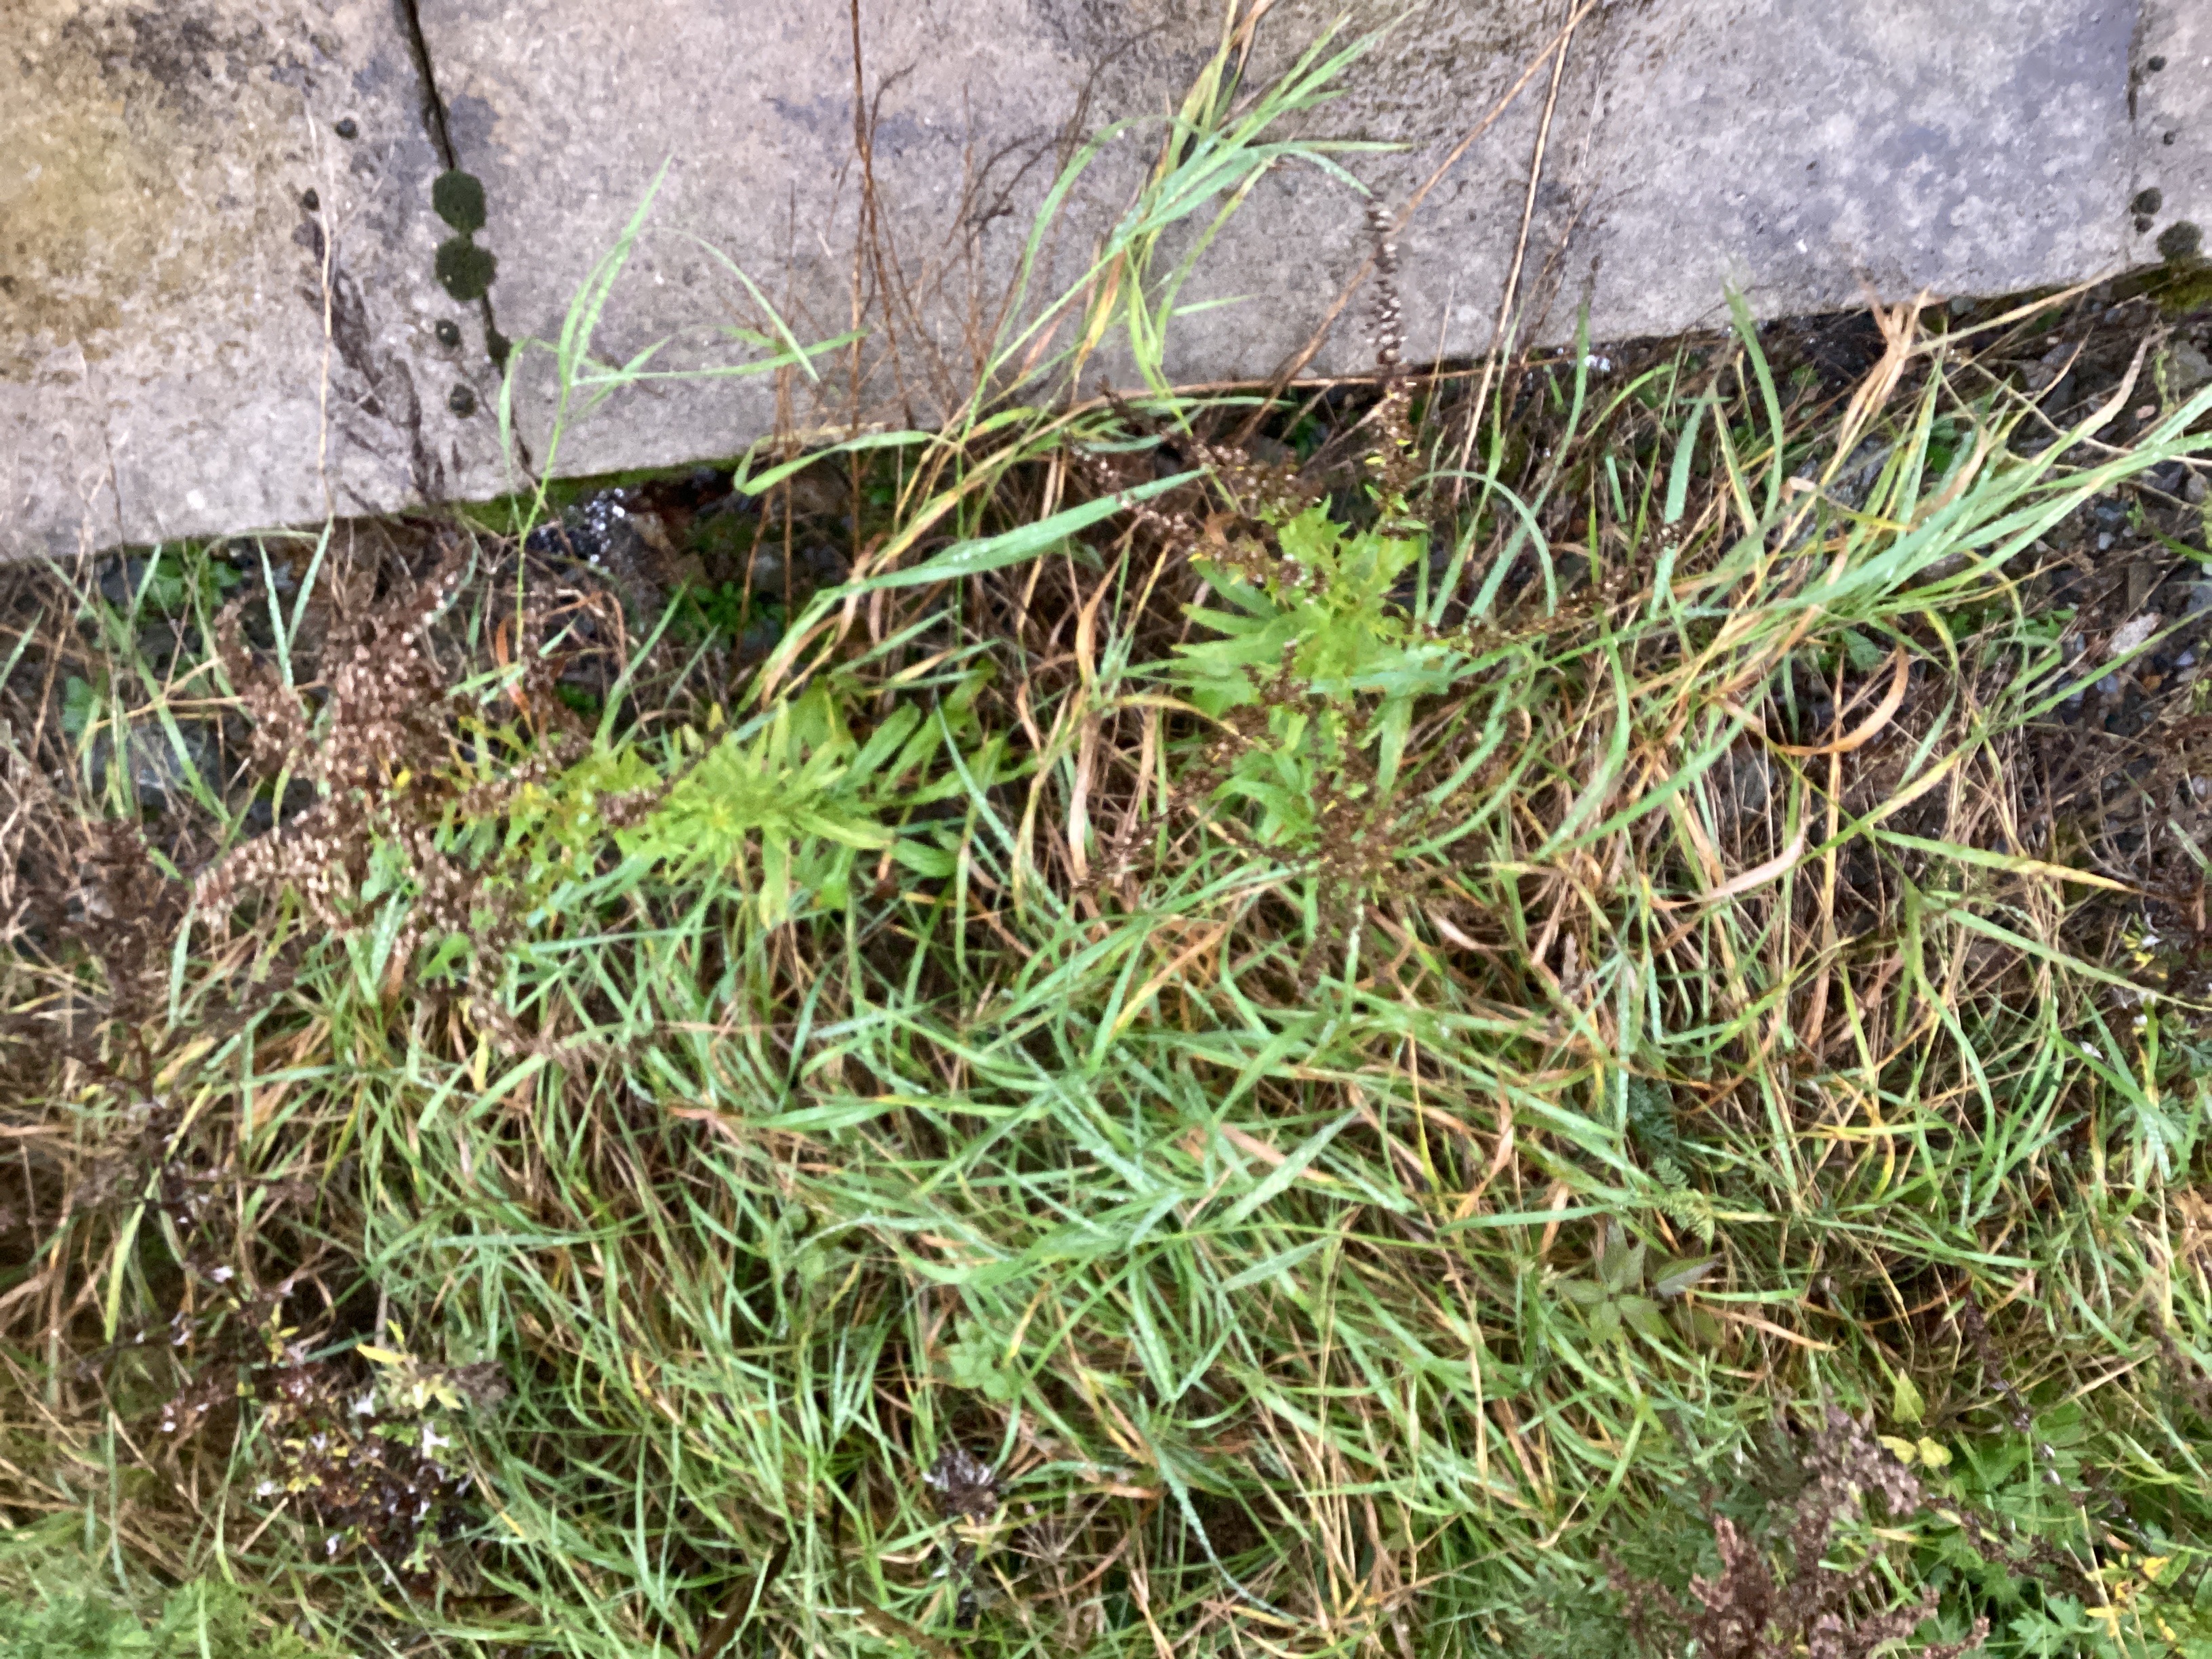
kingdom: Plantae
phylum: Tracheophyta
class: Magnoliopsida
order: Asterales
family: Asteraceae
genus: Solidago
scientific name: Solidago canadensis
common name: kanadagullris
